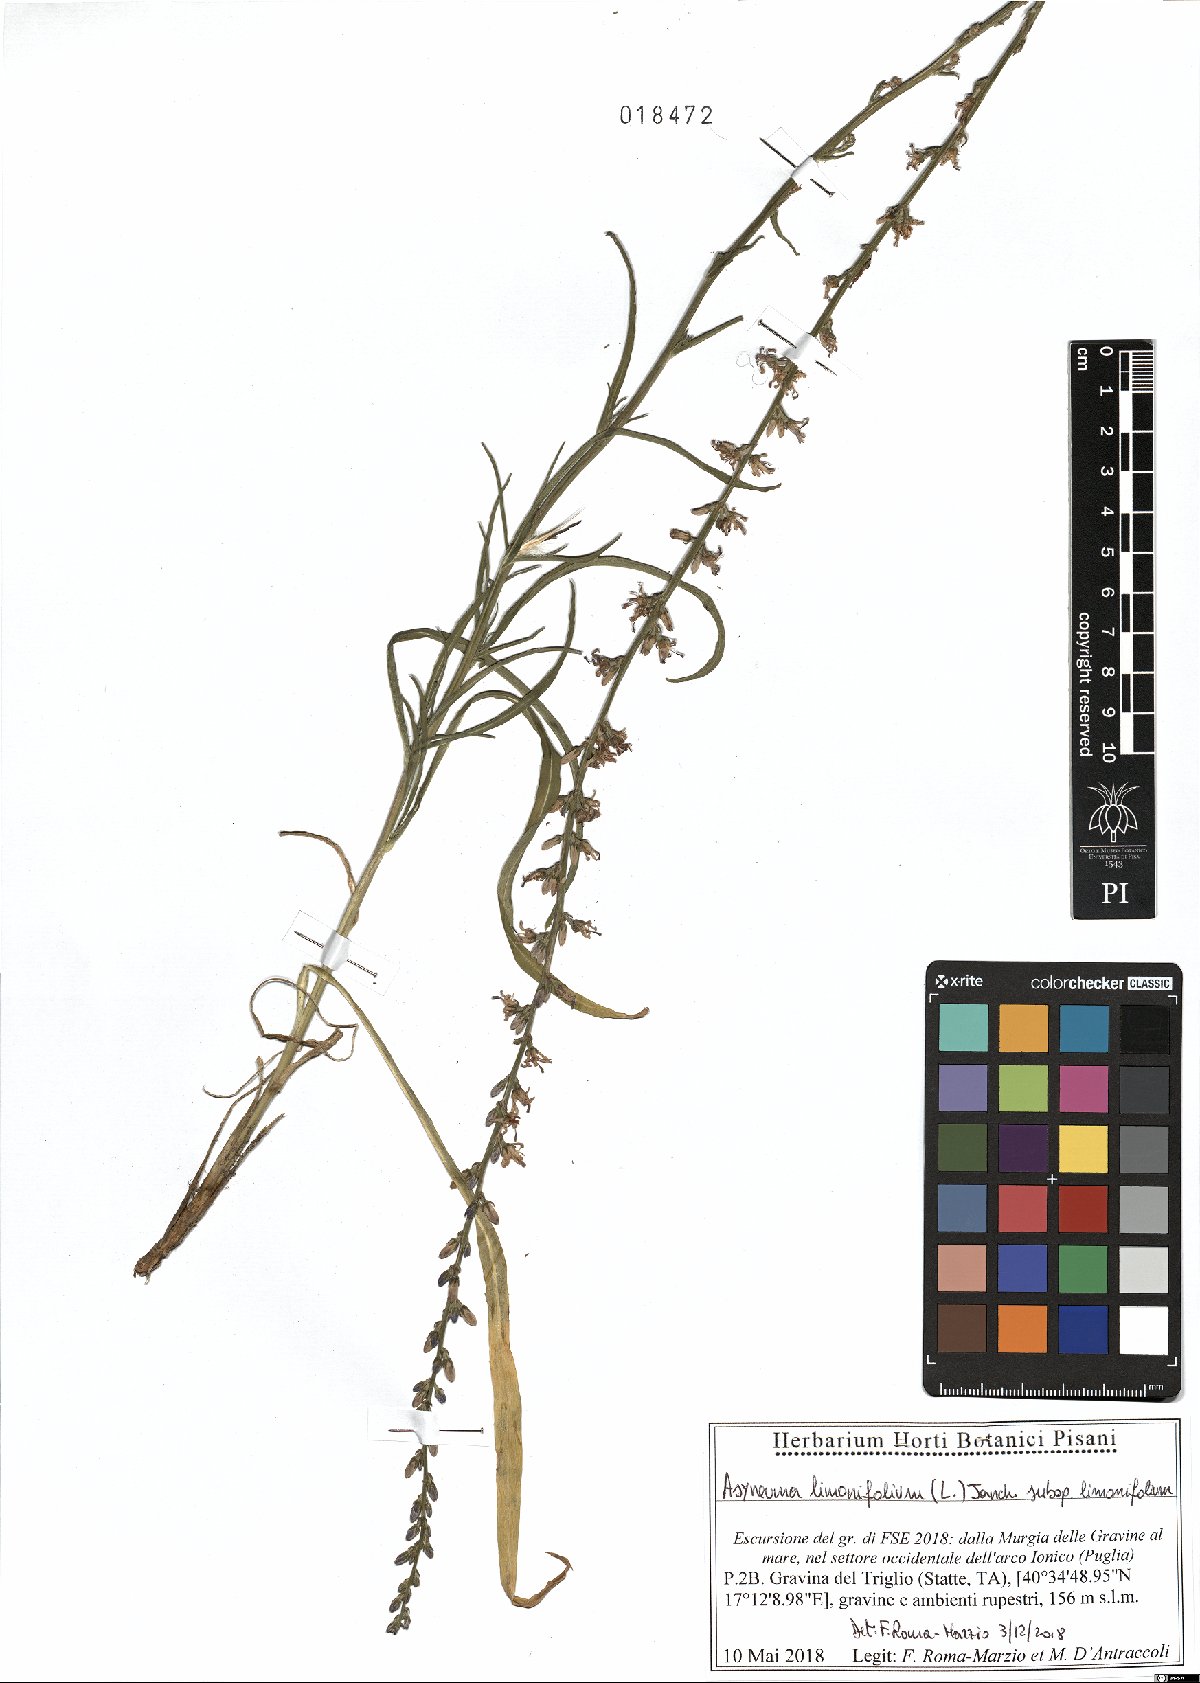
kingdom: Plantae
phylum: Tracheophyta
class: Magnoliopsida
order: Asterales
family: Campanulaceae
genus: Asyneuma
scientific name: Asyneuma limonifolium
